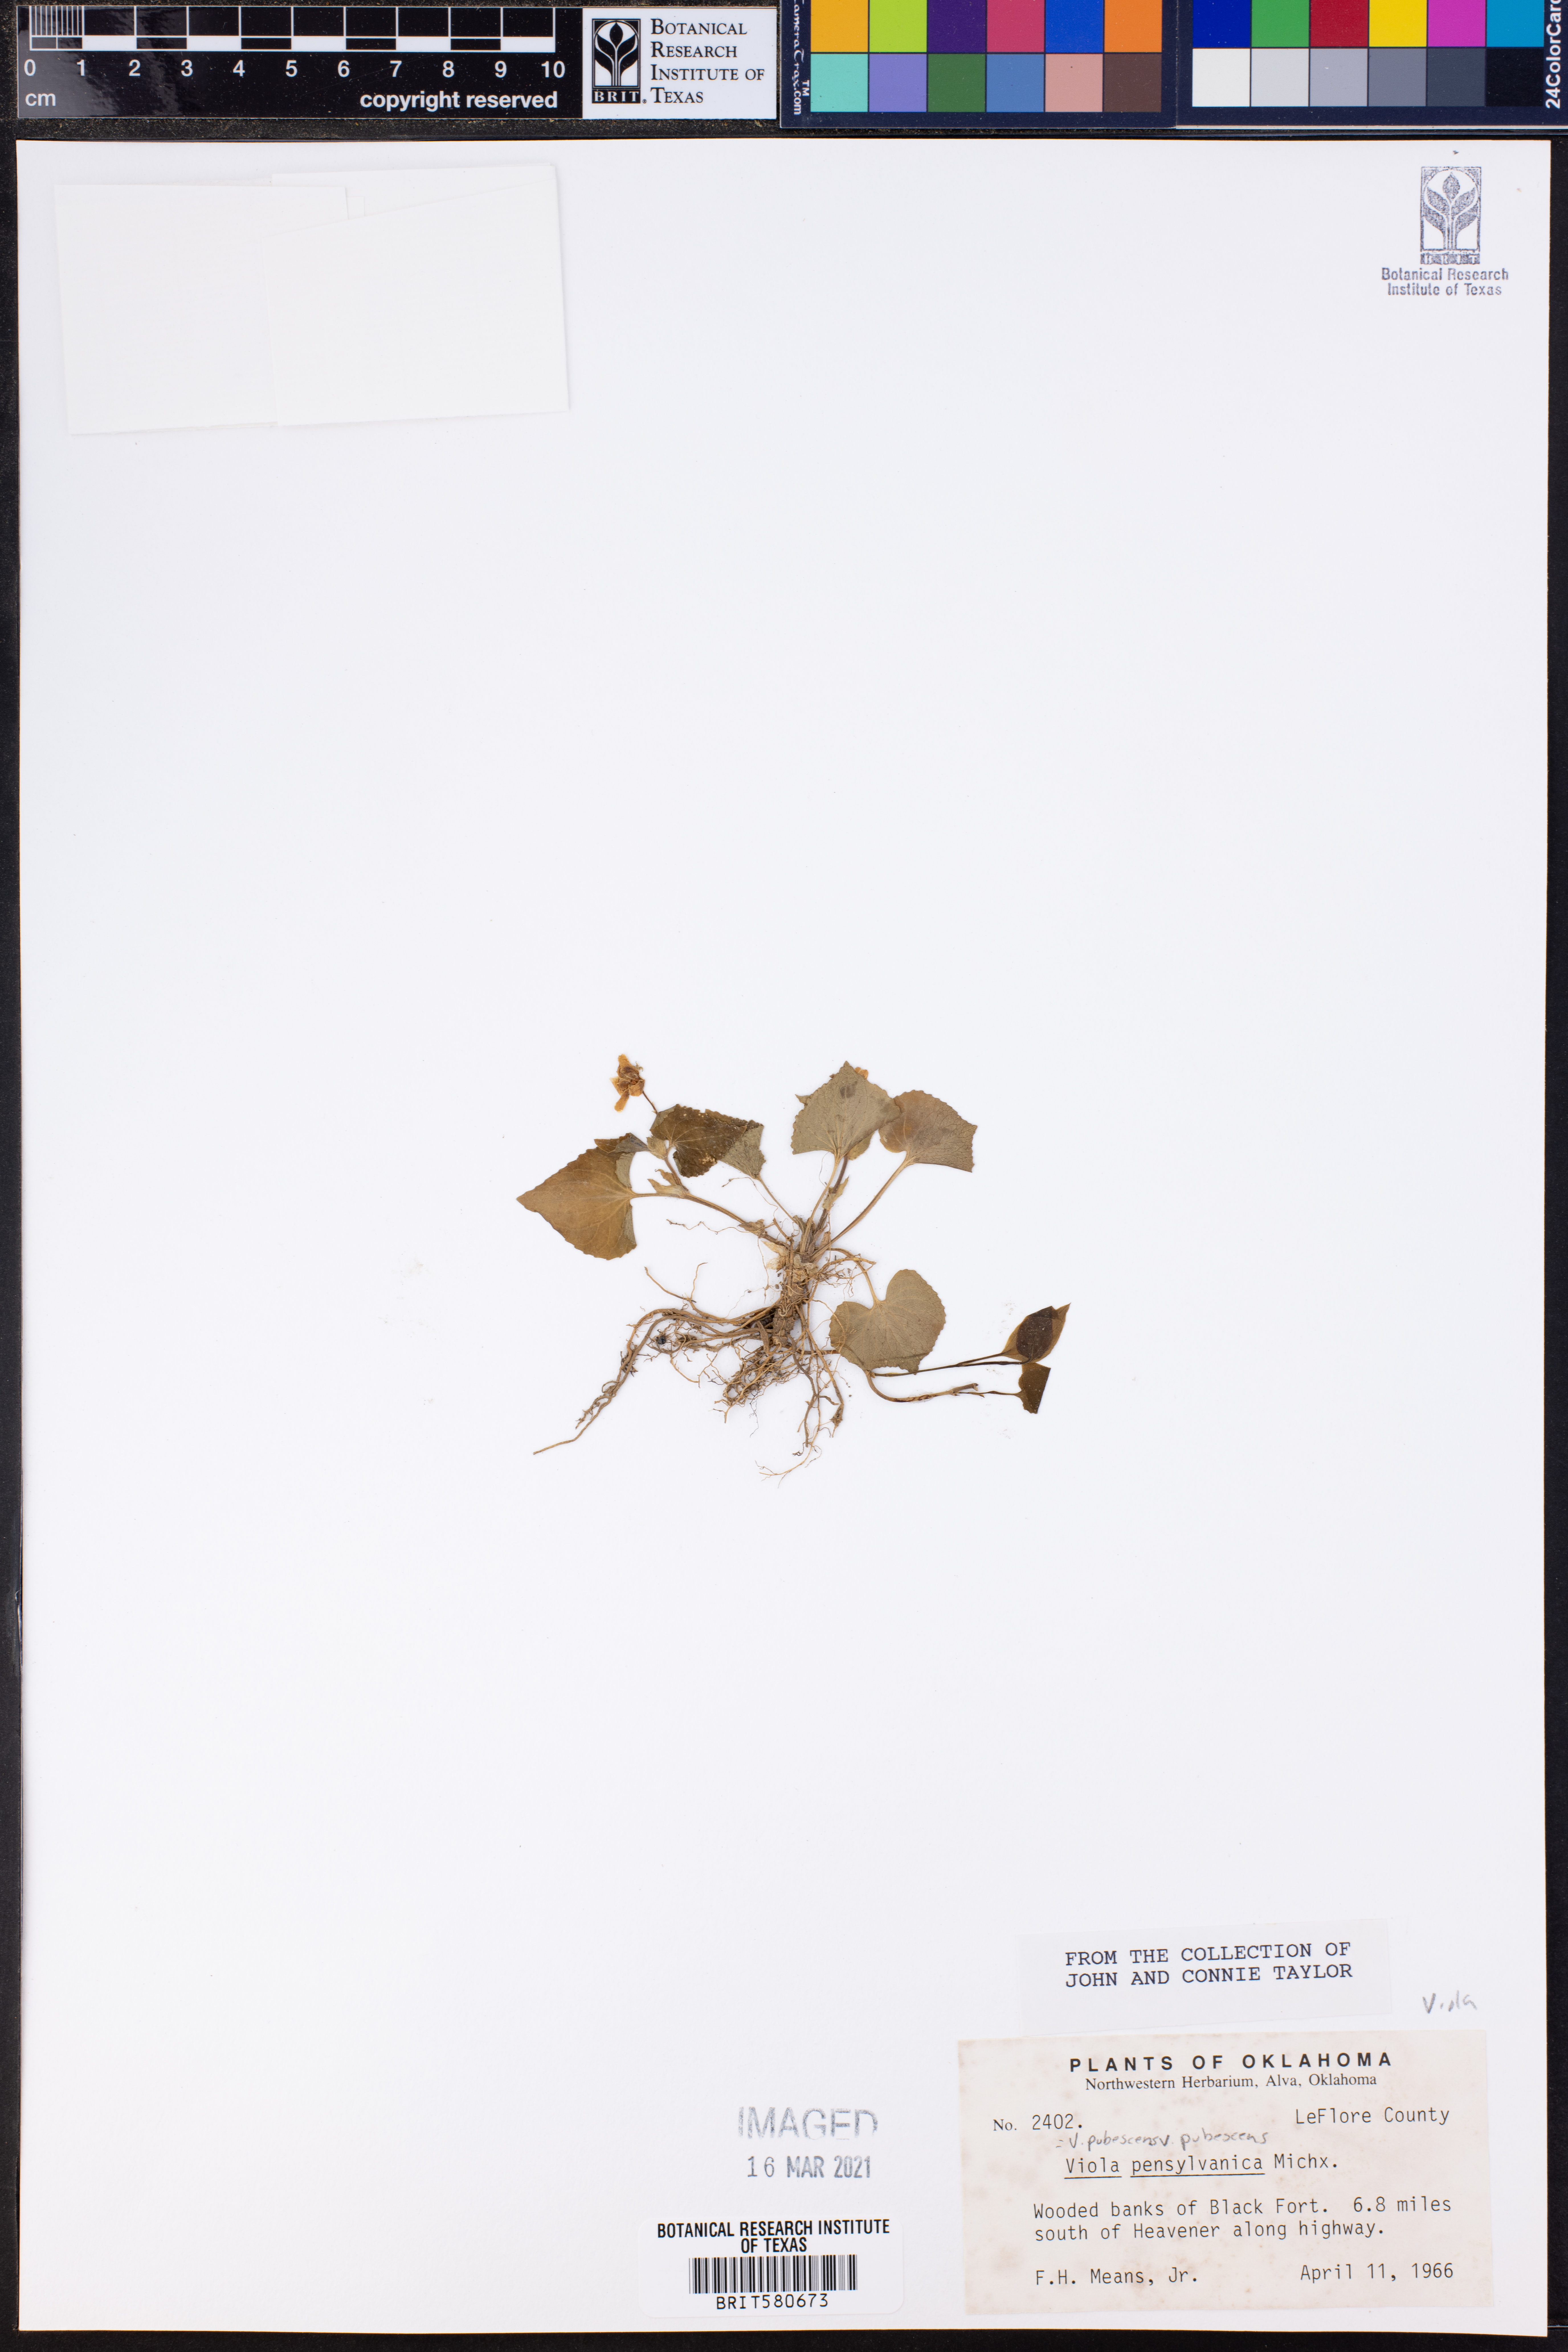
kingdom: Plantae
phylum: Tracheophyta
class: Magnoliopsida
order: Malpighiales
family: Violaceae
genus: Viola
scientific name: Viola pubescens
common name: Yellow forest violet
